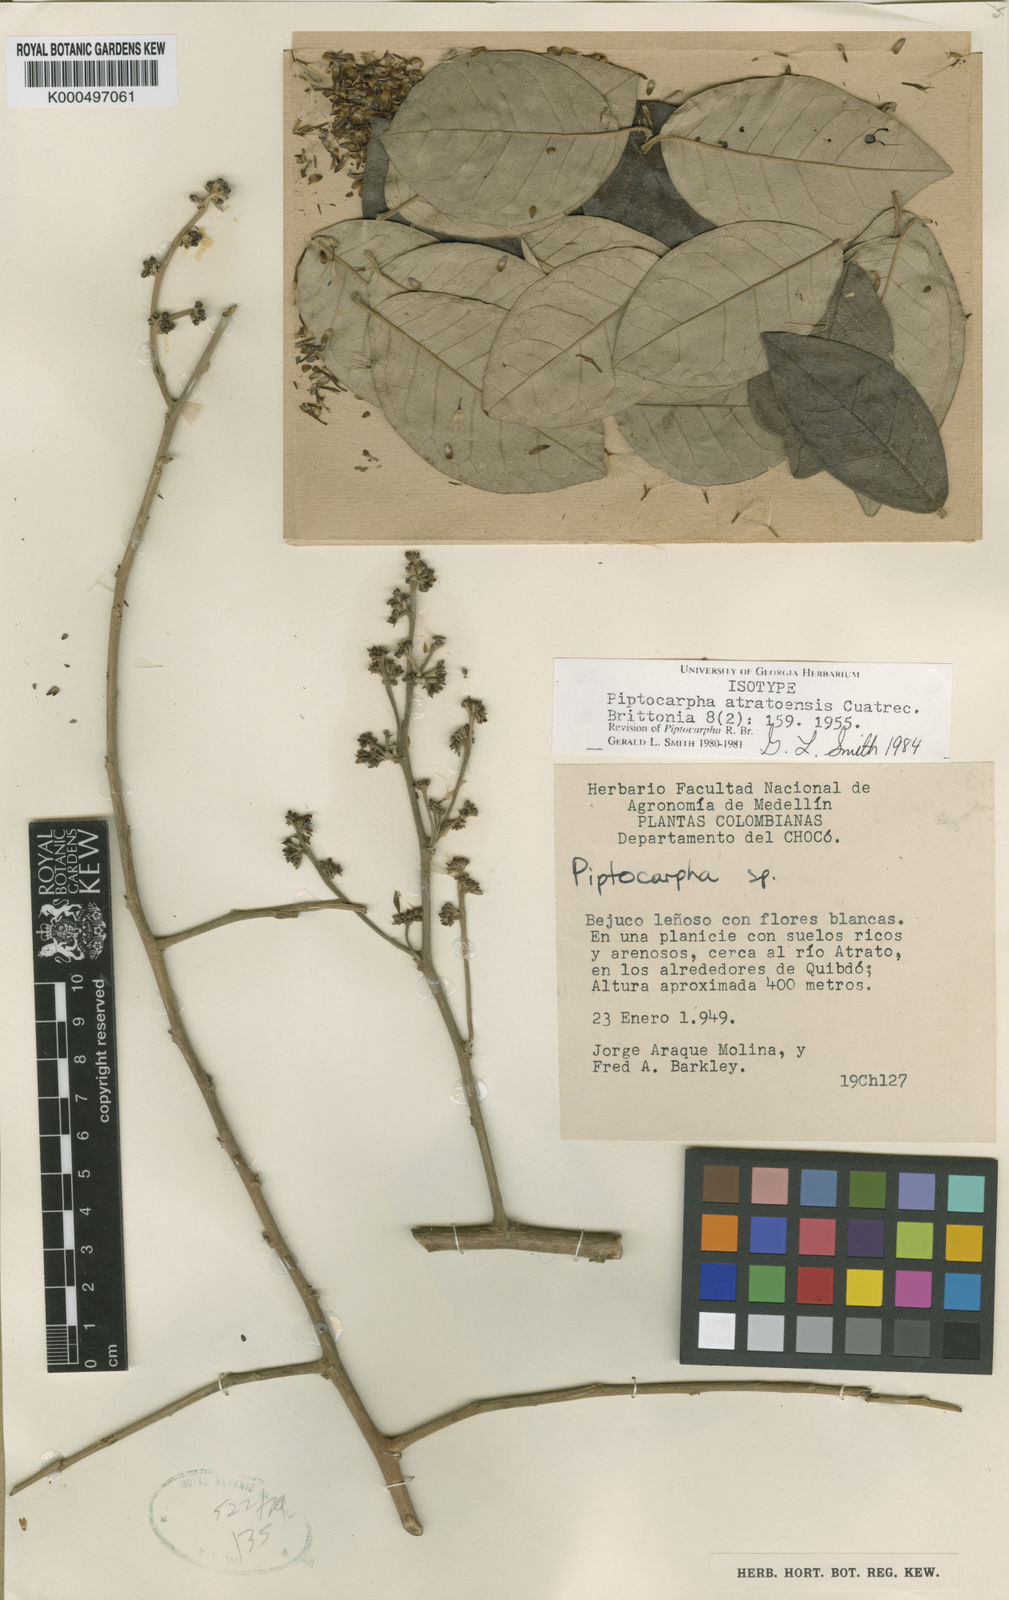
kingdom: Plantae
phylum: Tracheophyta
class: Magnoliopsida
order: Asterales
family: Asteraceae
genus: Piptocarpha
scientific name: Piptocarpha atratoensis
